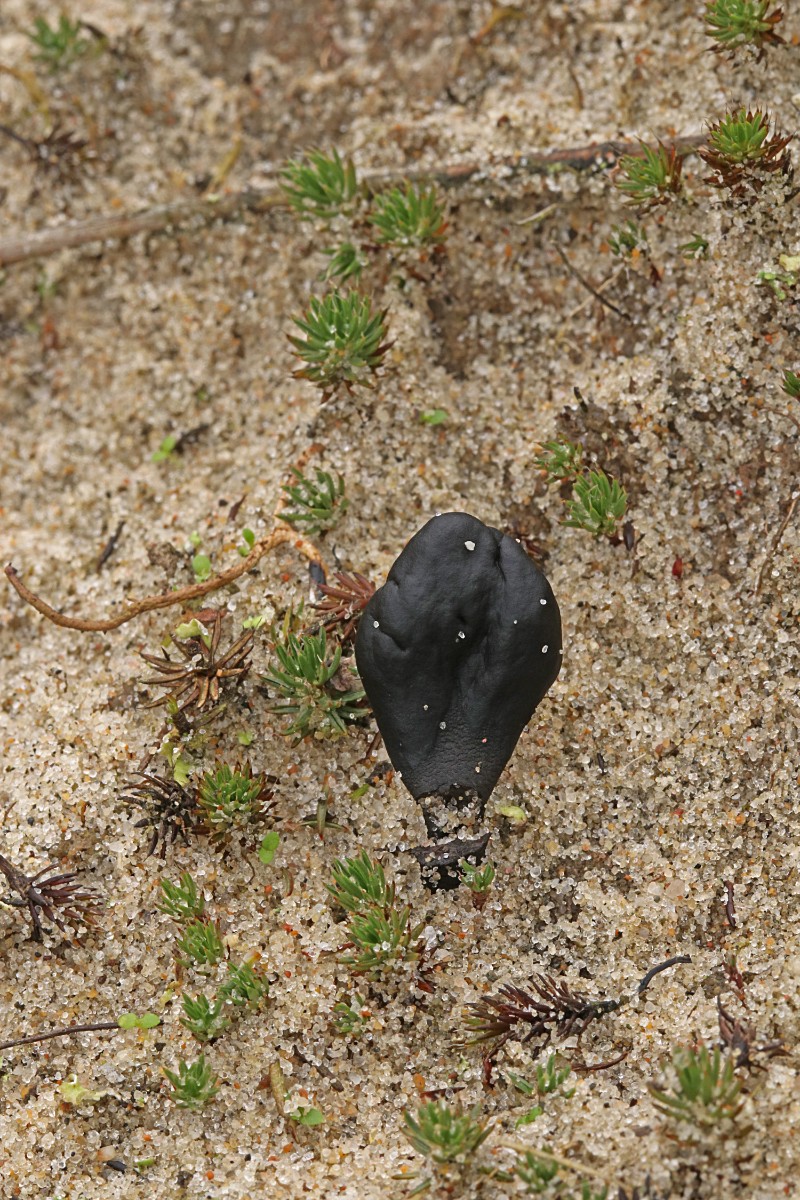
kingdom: Fungi
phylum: Ascomycota
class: Geoglossomycetes
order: Geoglossales
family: Geoglossaceae
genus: Sabuloglossum
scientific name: Sabuloglossum arenarium
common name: klit-jordtunge
